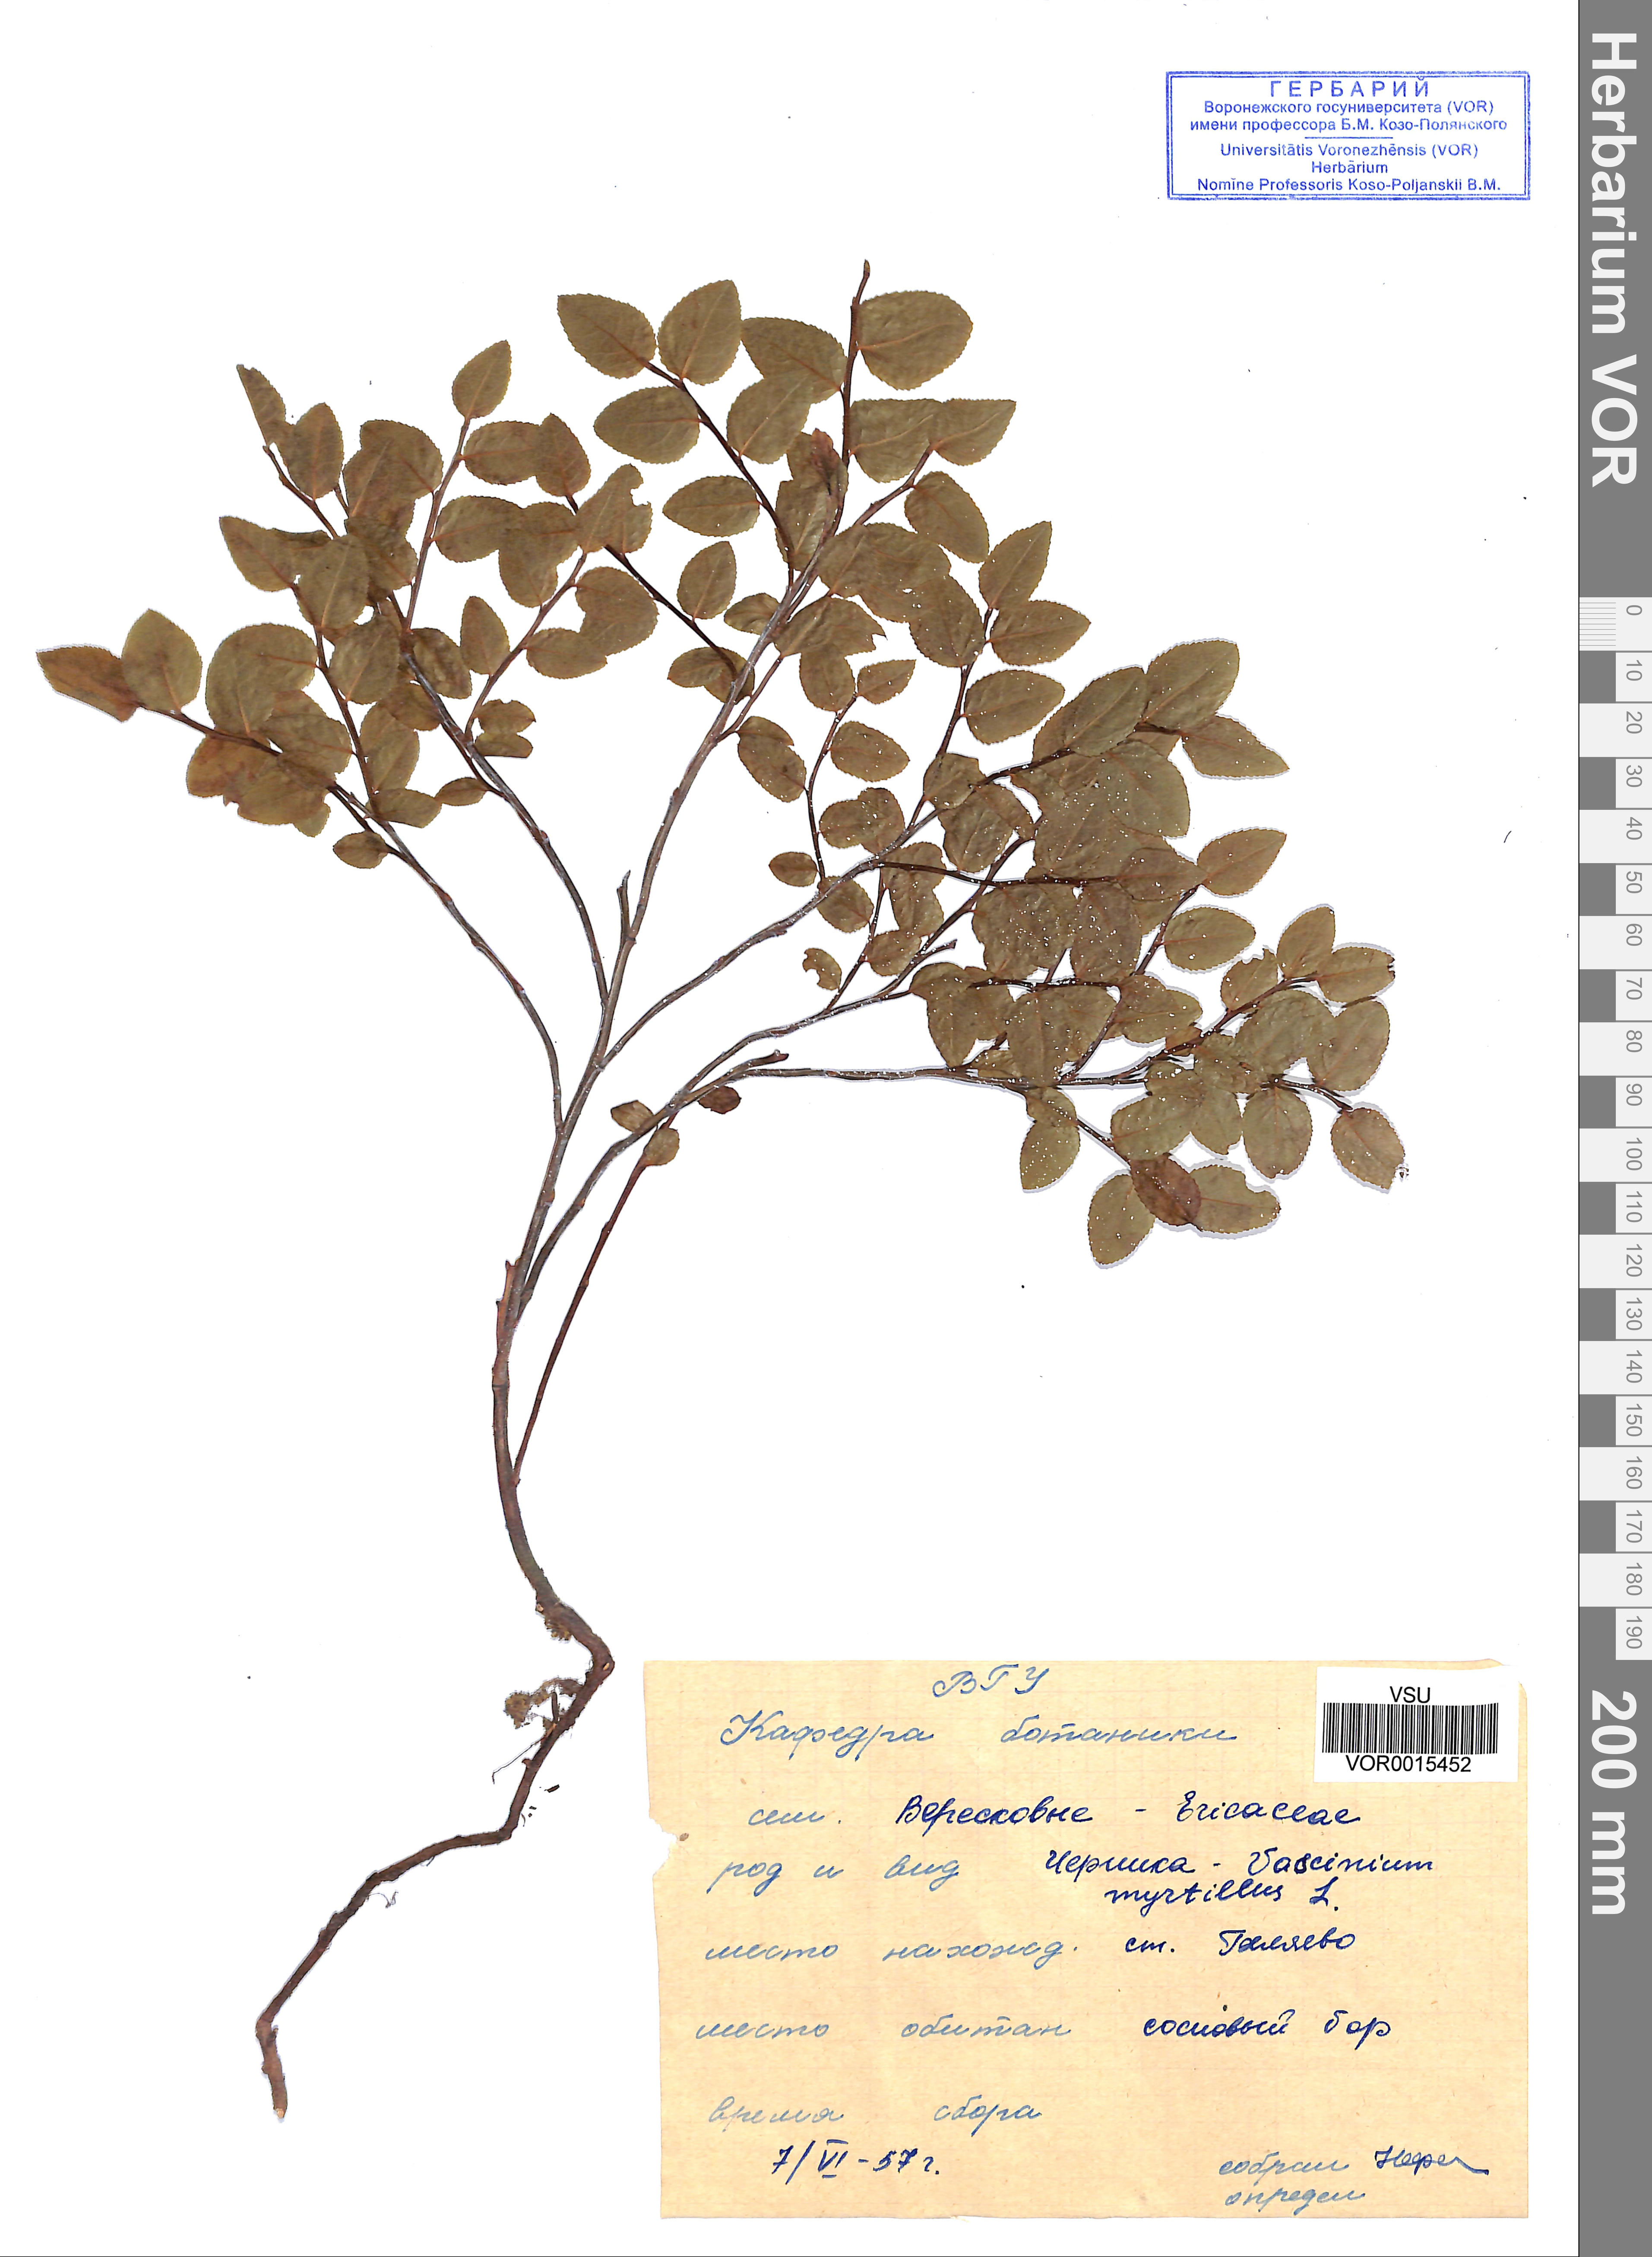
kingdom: Plantae
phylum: Tracheophyta
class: Magnoliopsida
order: Ericales
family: Ericaceae
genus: Vaccinium
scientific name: Vaccinium myrtillus
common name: Bilberry
